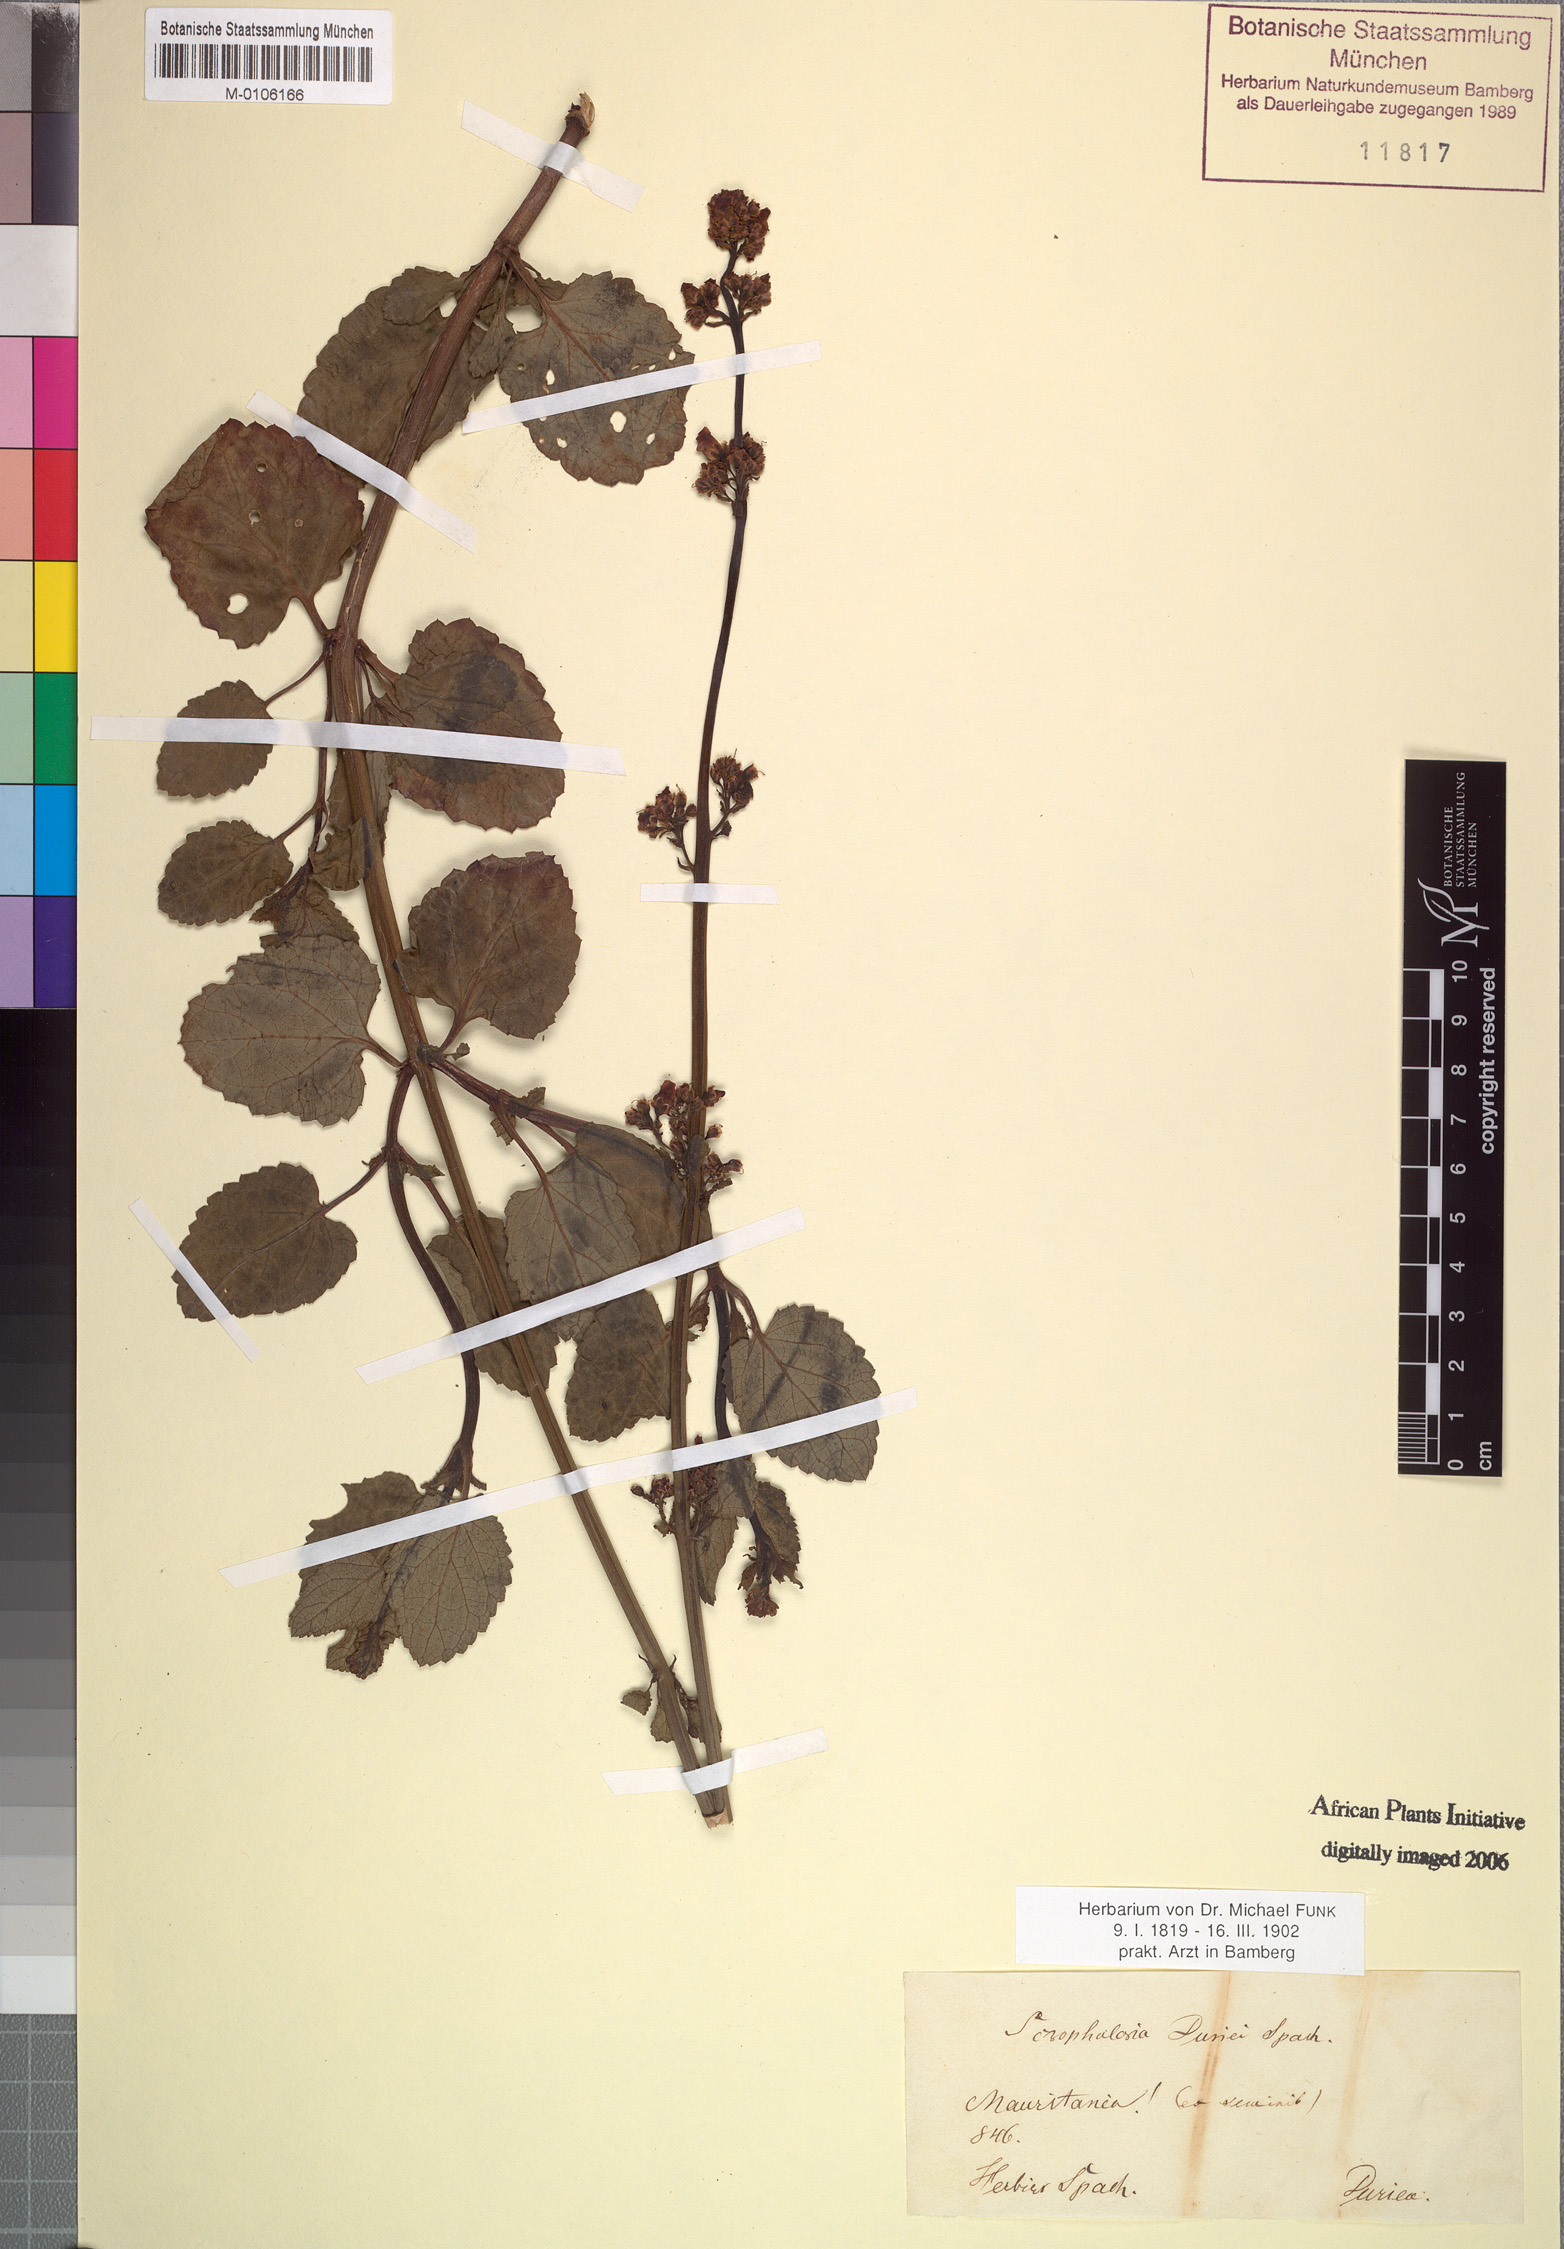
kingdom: Plantae
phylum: Tracheophyta
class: Magnoliopsida
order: Lamiales
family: Scrophulariaceae
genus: Scrophularia
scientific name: Scrophularia arguta
